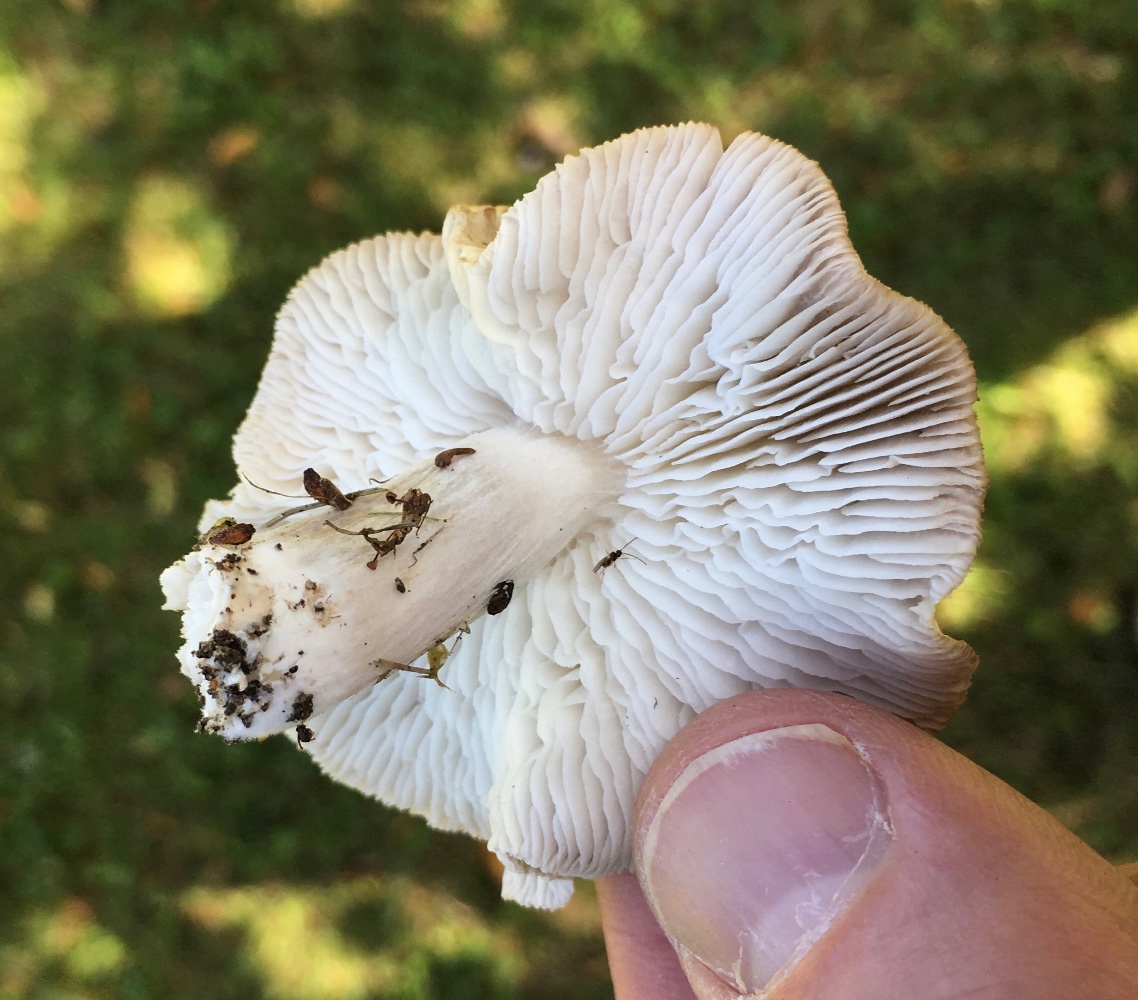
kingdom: Fungi
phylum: Basidiomycota
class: Agaricomycetes
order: Agaricales
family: Tricholomataceae
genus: Tricholoma
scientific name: Tricholoma
